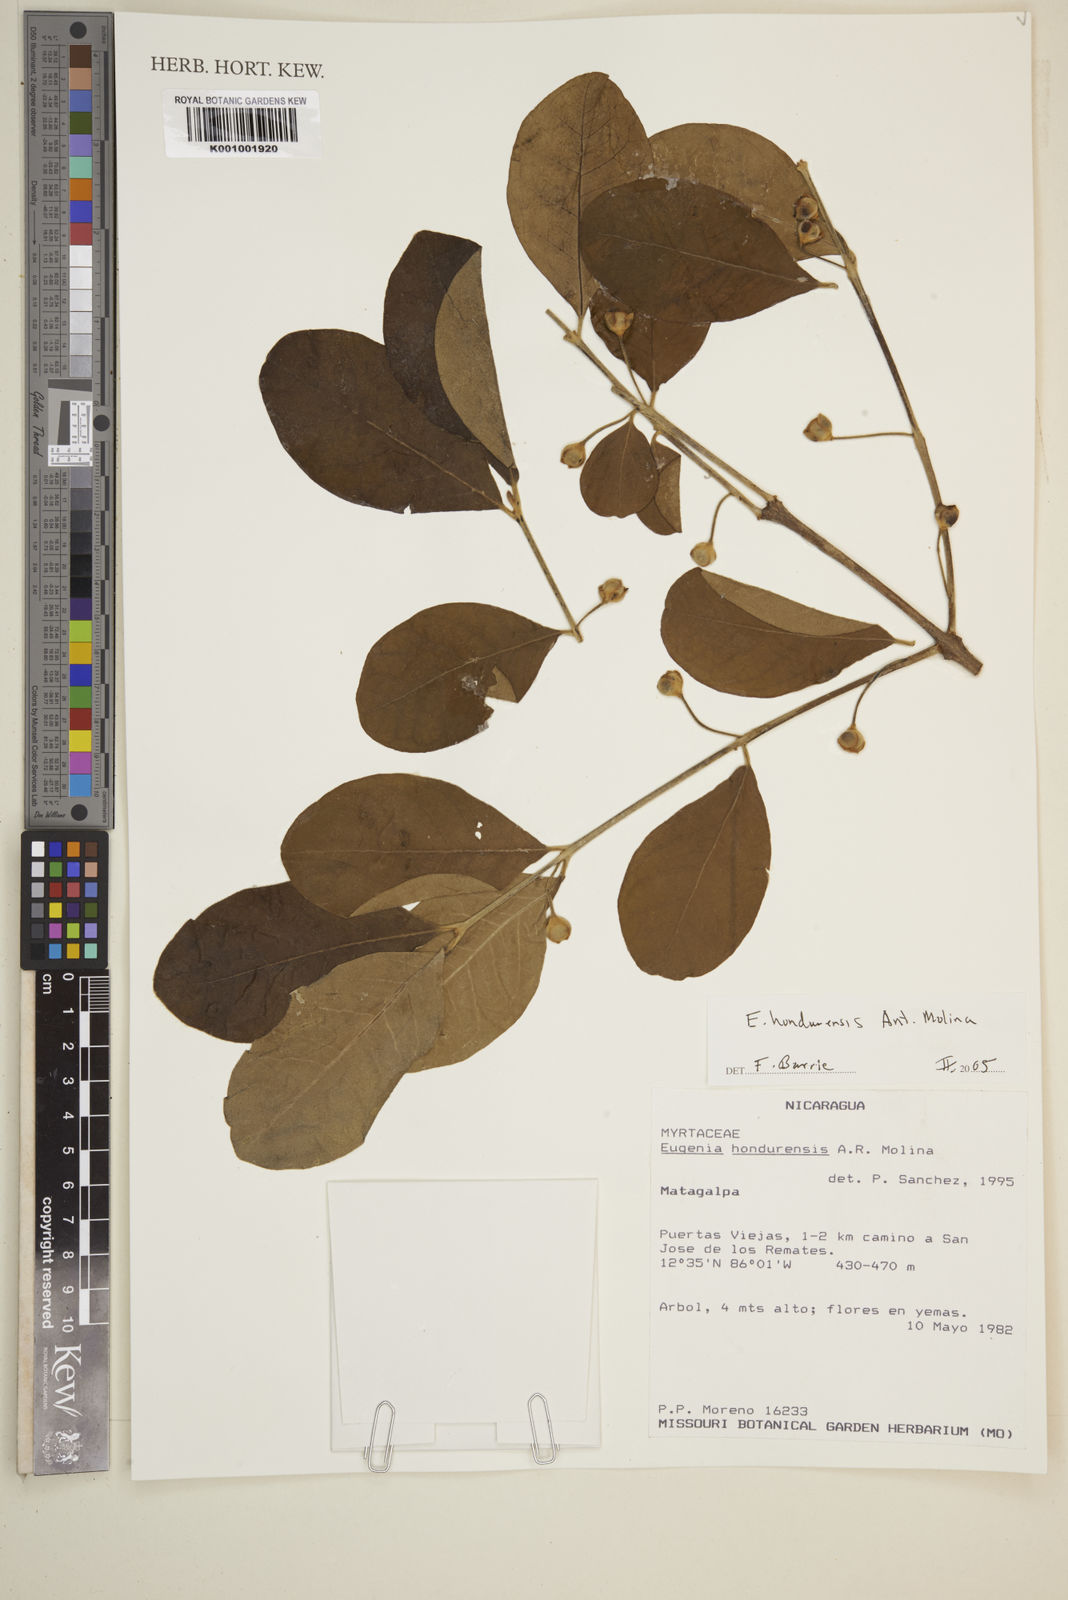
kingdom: Plantae
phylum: Tracheophyta
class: Magnoliopsida
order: Myrtales
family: Myrtaceae
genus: Eugenia
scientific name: Eugenia hondurensis
